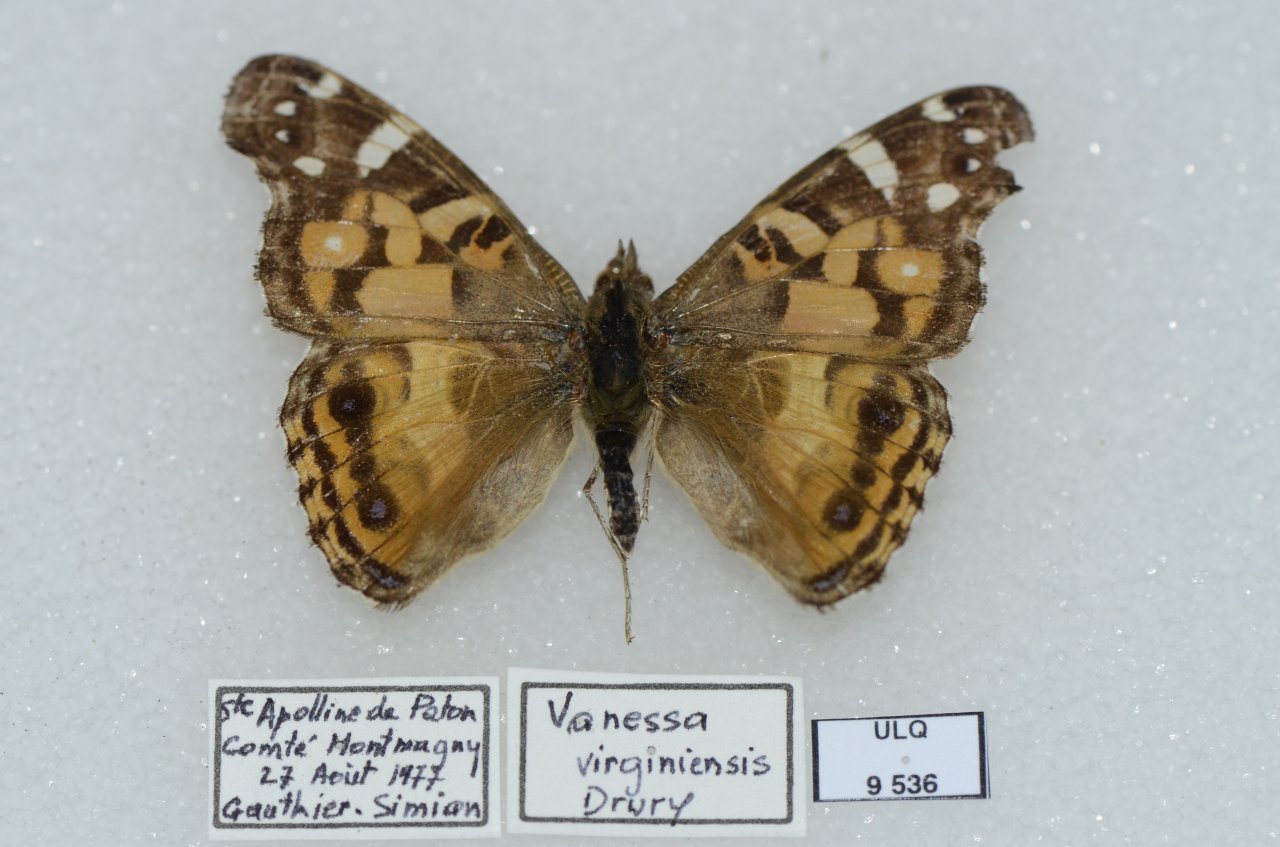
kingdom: Animalia
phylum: Arthropoda
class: Insecta
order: Lepidoptera
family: Nymphalidae
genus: Vanessa
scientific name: Vanessa virginiensis
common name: American Lady
